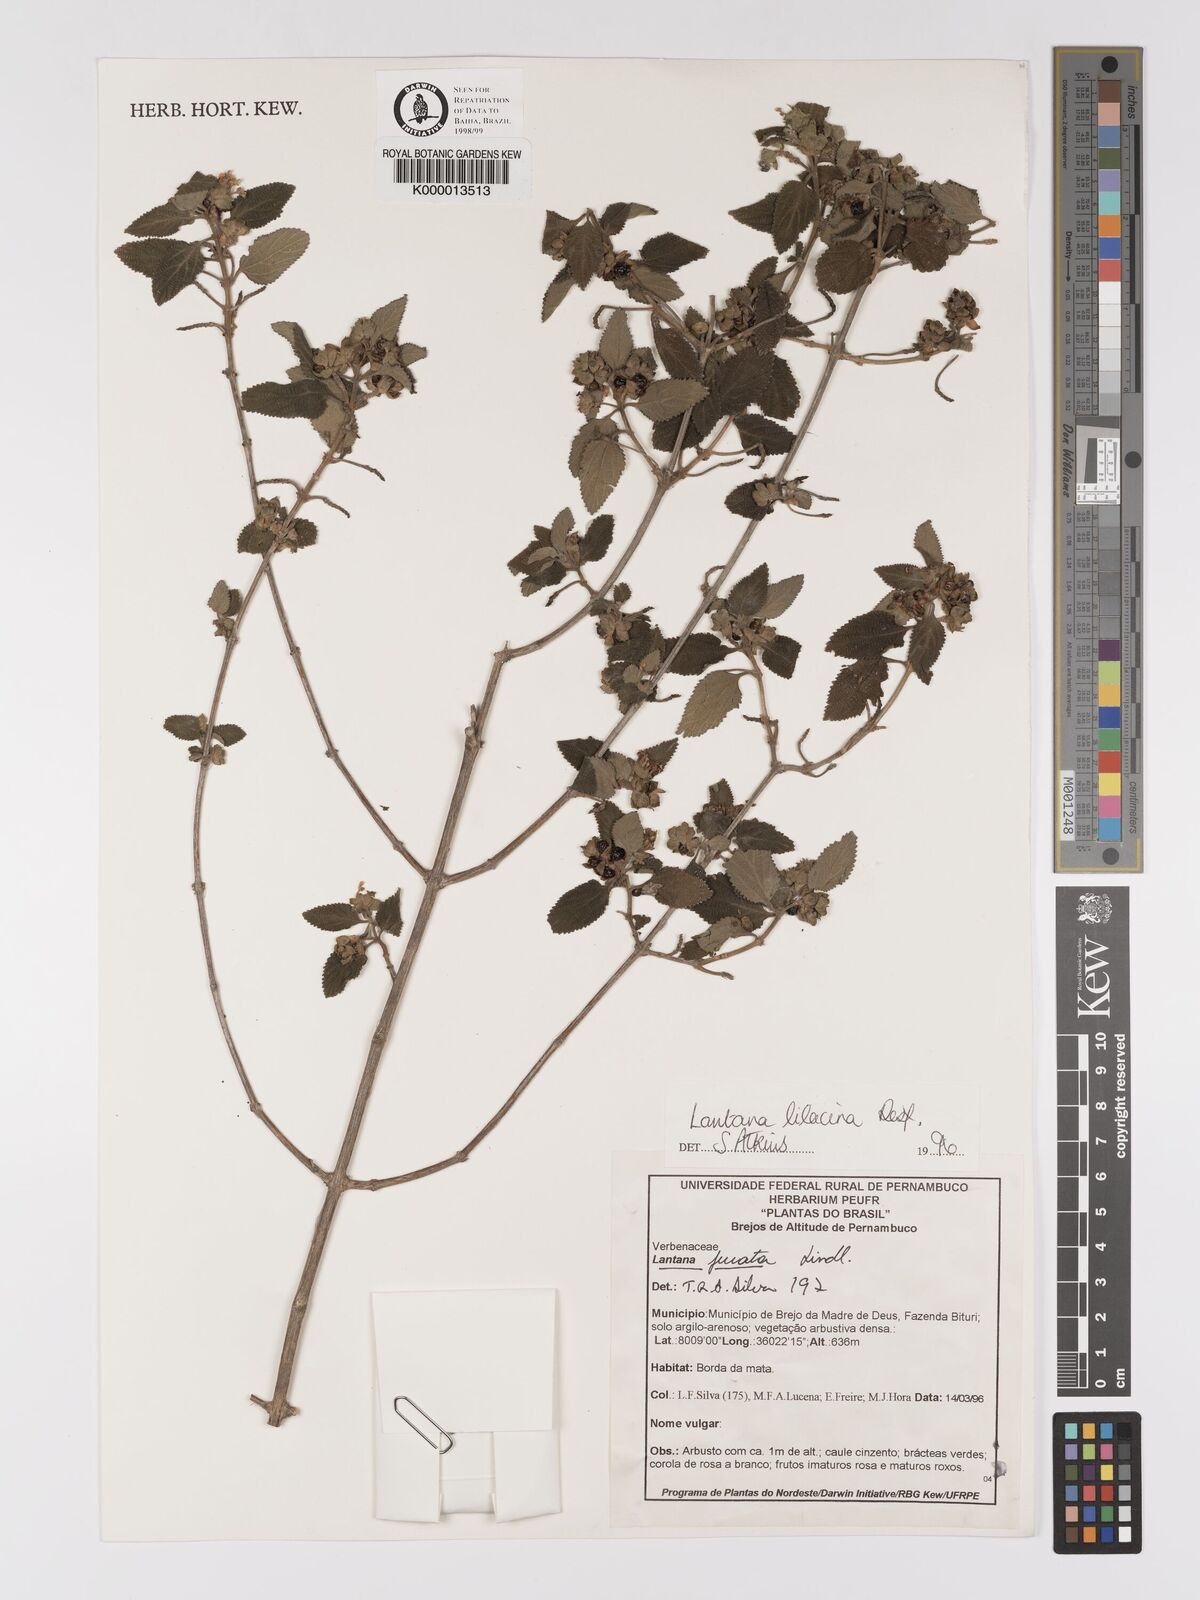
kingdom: Plantae
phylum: Tracheophyta
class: Magnoliopsida
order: Lamiales
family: Verbenaceae
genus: Lantana
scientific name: Lantana fucata
